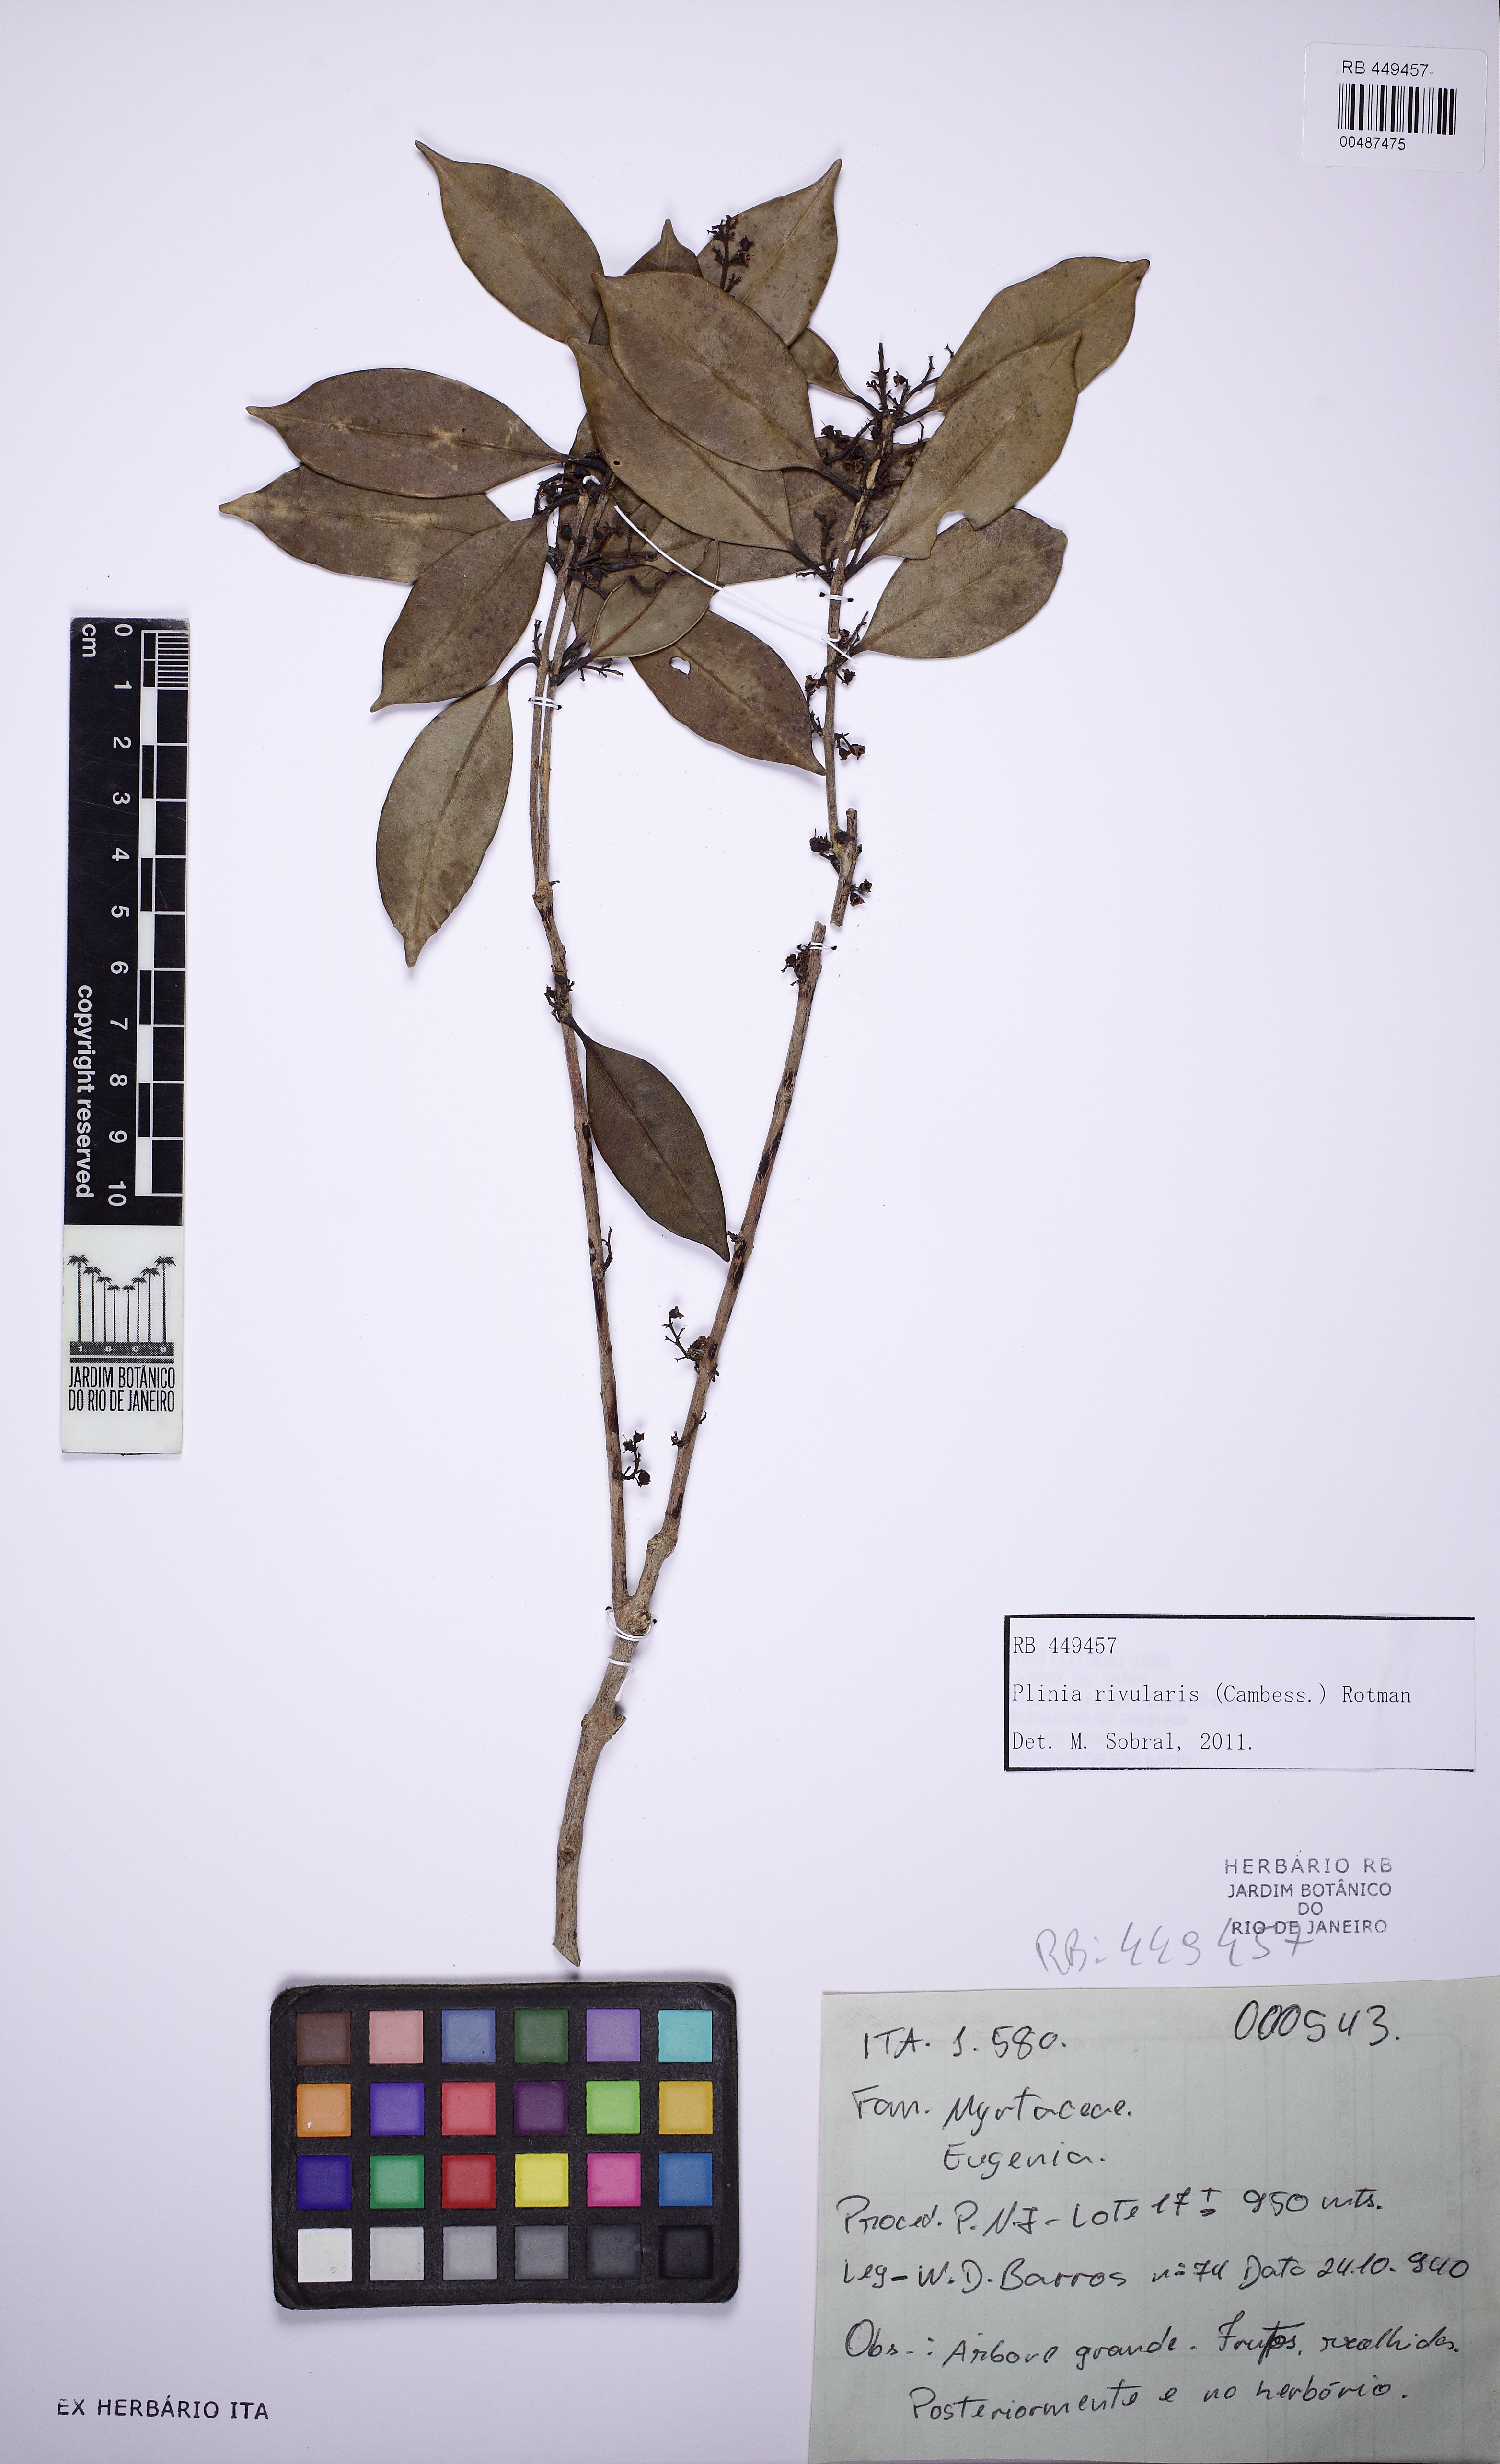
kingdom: Plantae
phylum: Tracheophyta
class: Magnoliopsida
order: Myrtales
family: Myrtaceae
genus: Plinia
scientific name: Plinia rivularis
